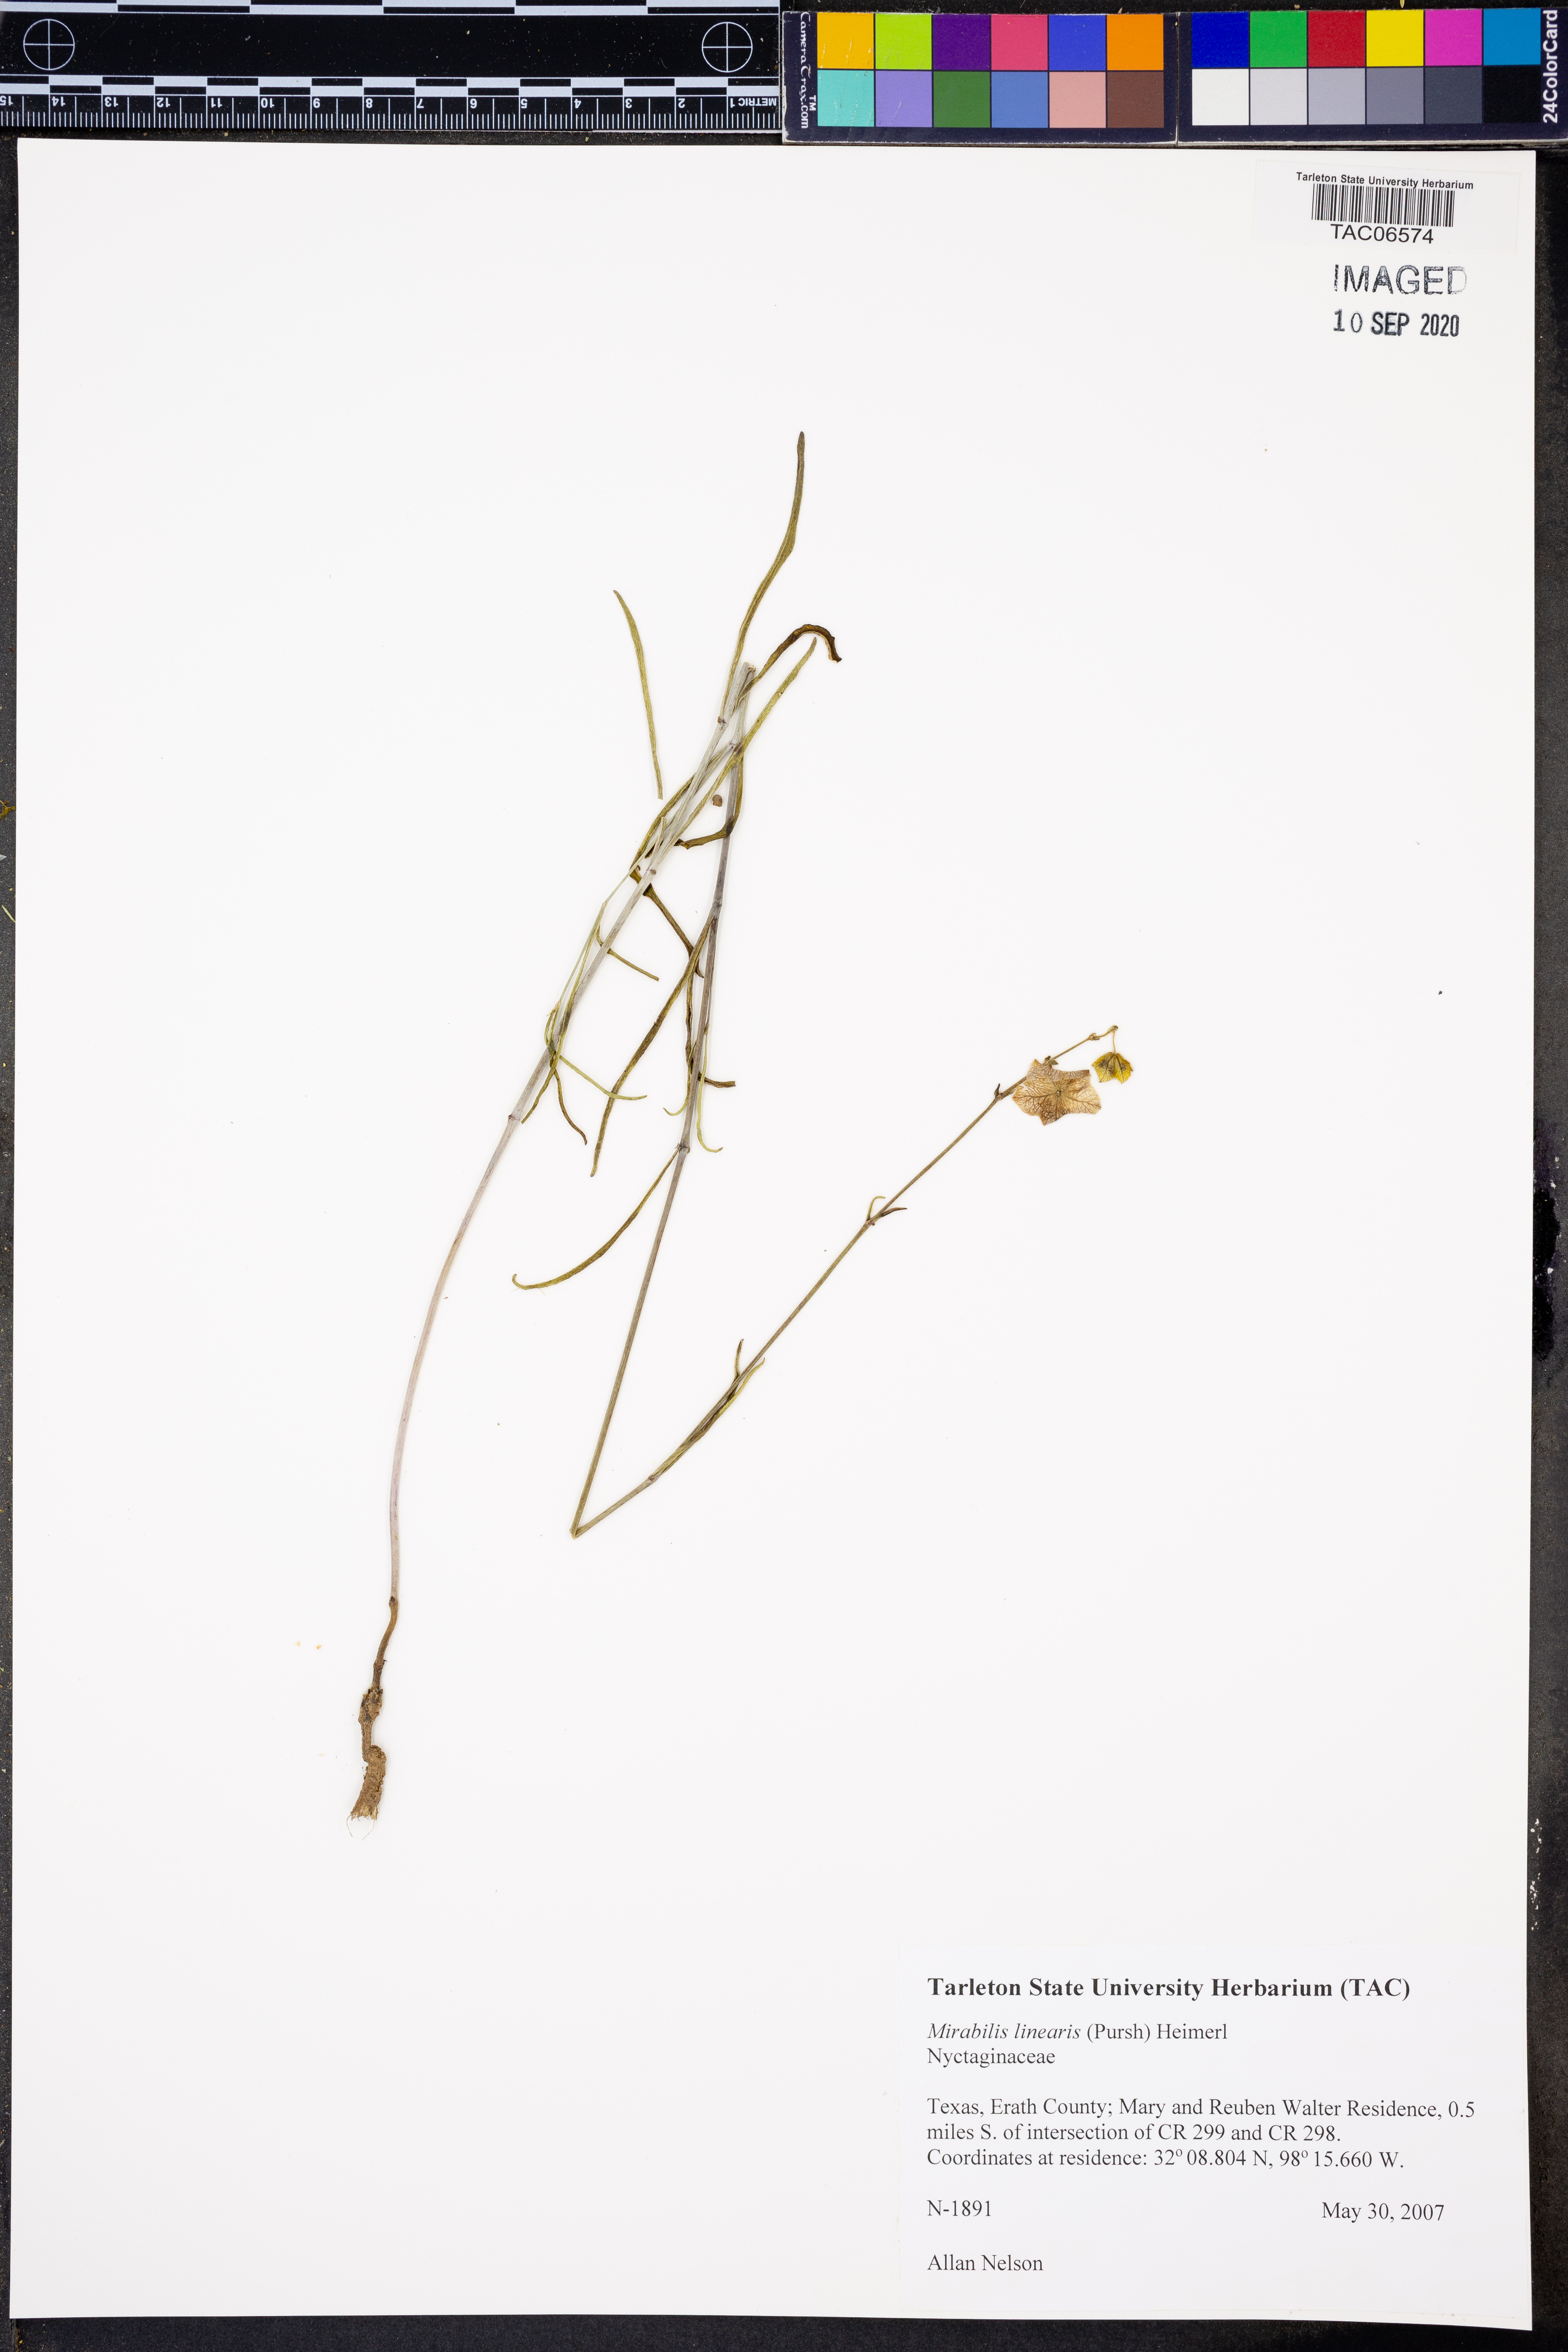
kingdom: Plantae
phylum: Tracheophyta
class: Magnoliopsida
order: Caryophyllales
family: Nyctaginaceae
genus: Mirabilis
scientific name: Mirabilis linearis
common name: Linear-leaved four-o'clock
